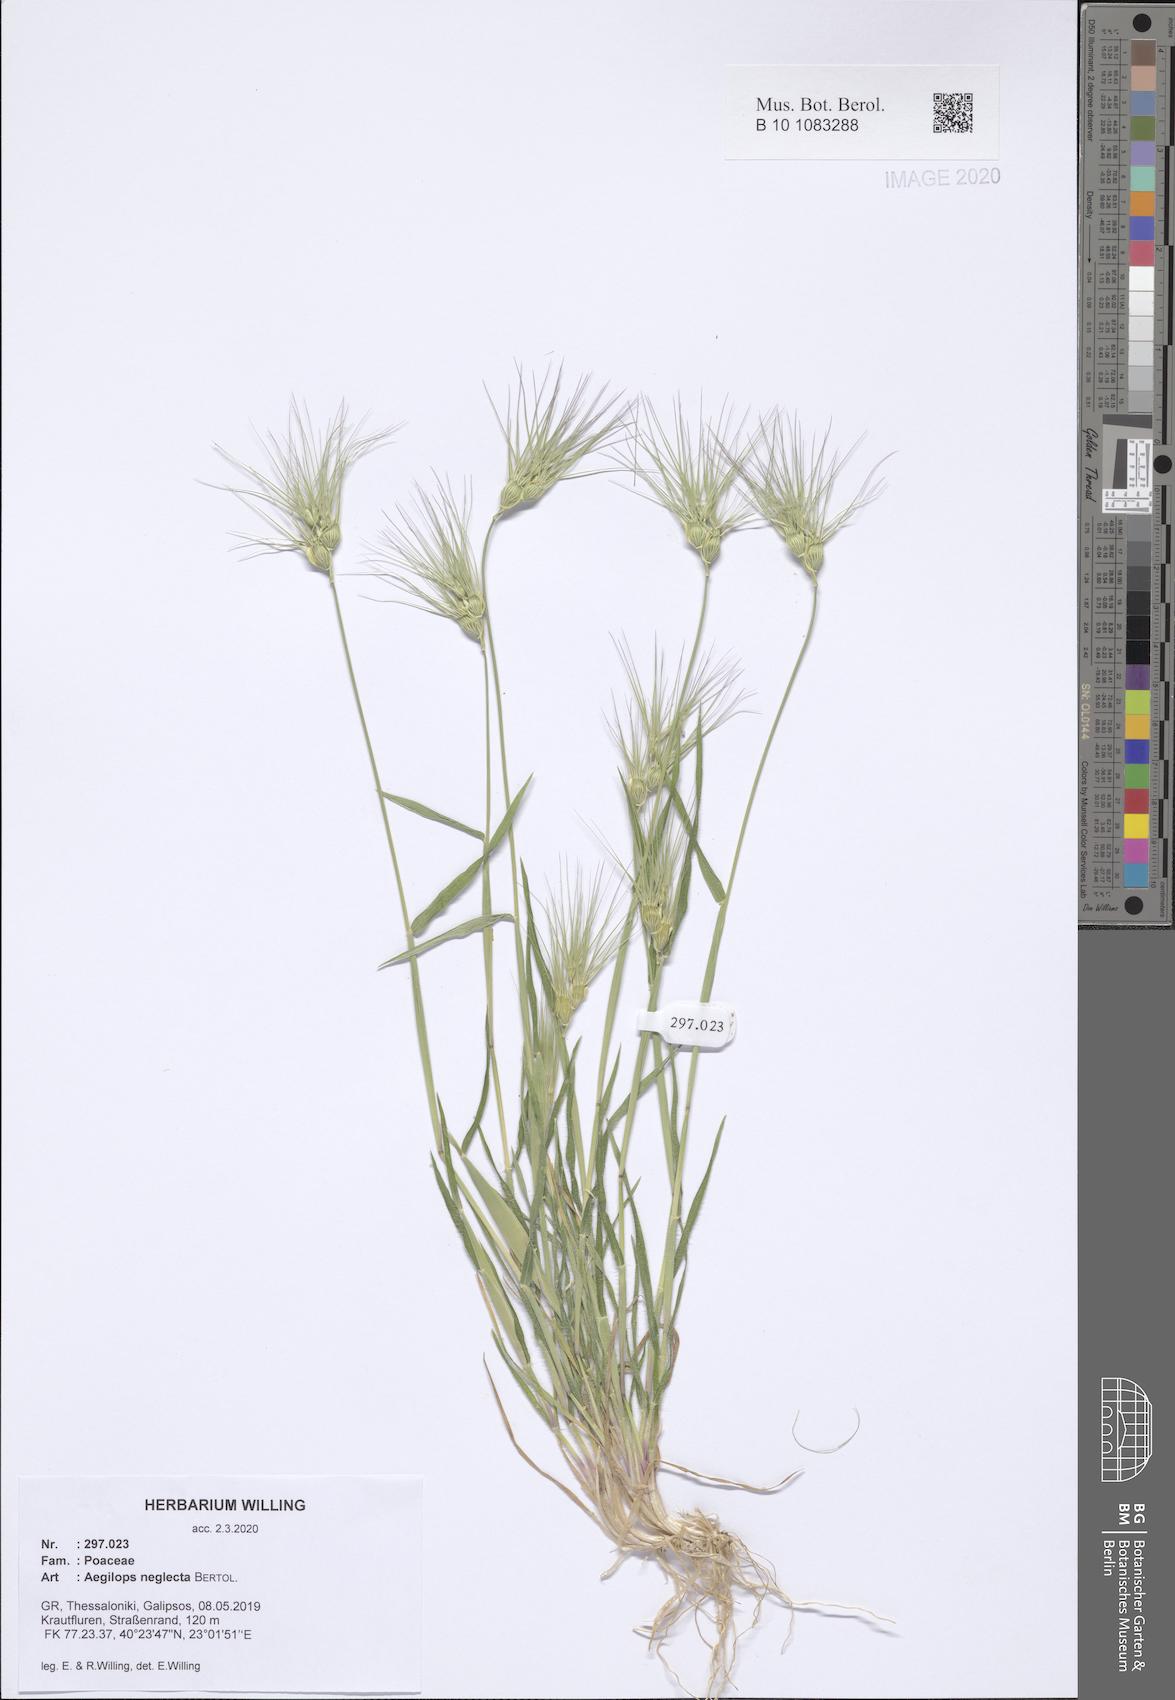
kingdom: Plantae
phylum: Tracheophyta
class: Liliopsida
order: Poales
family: Poaceae
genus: Aegilops
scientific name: Aegilops neglecta
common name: Three-awn goat grass
